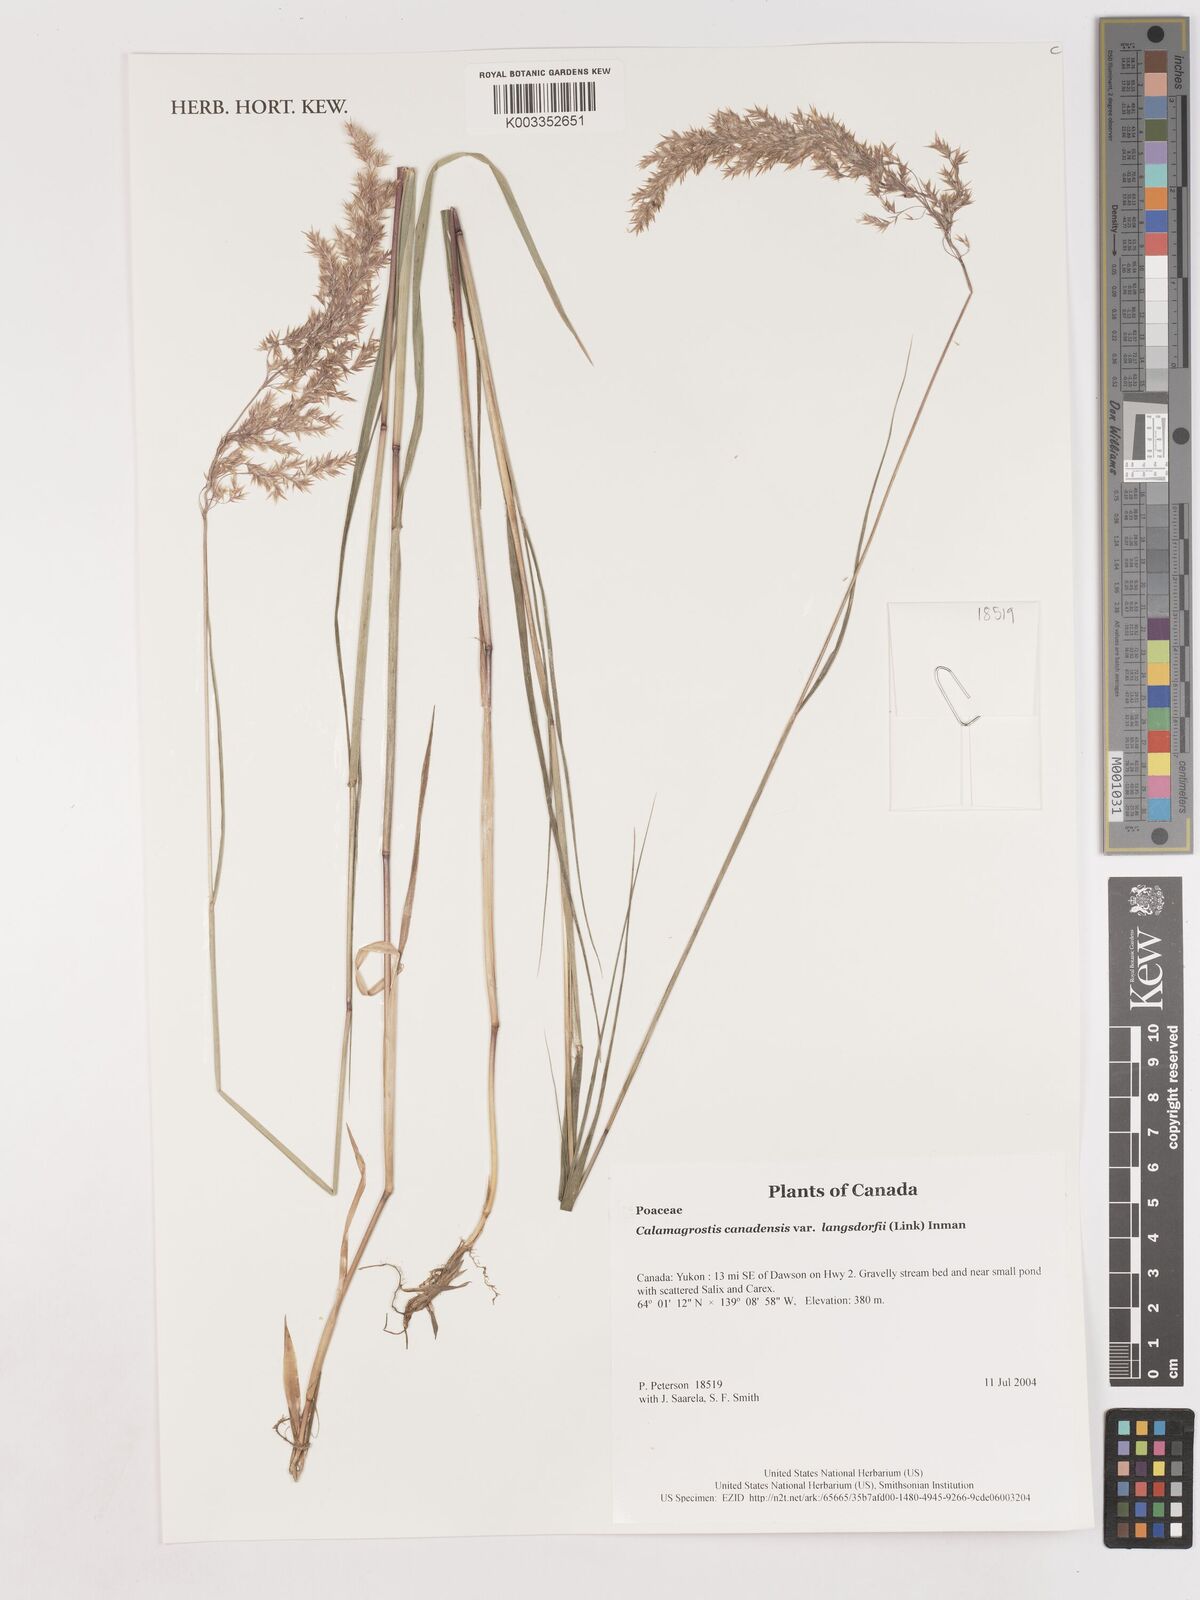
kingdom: Plantae
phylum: Tracheophyta
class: Liliopsida
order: Poales
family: Poaceae
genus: Calamagrostis
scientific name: Calamagrostis canadensis
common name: Canada bluejoint
